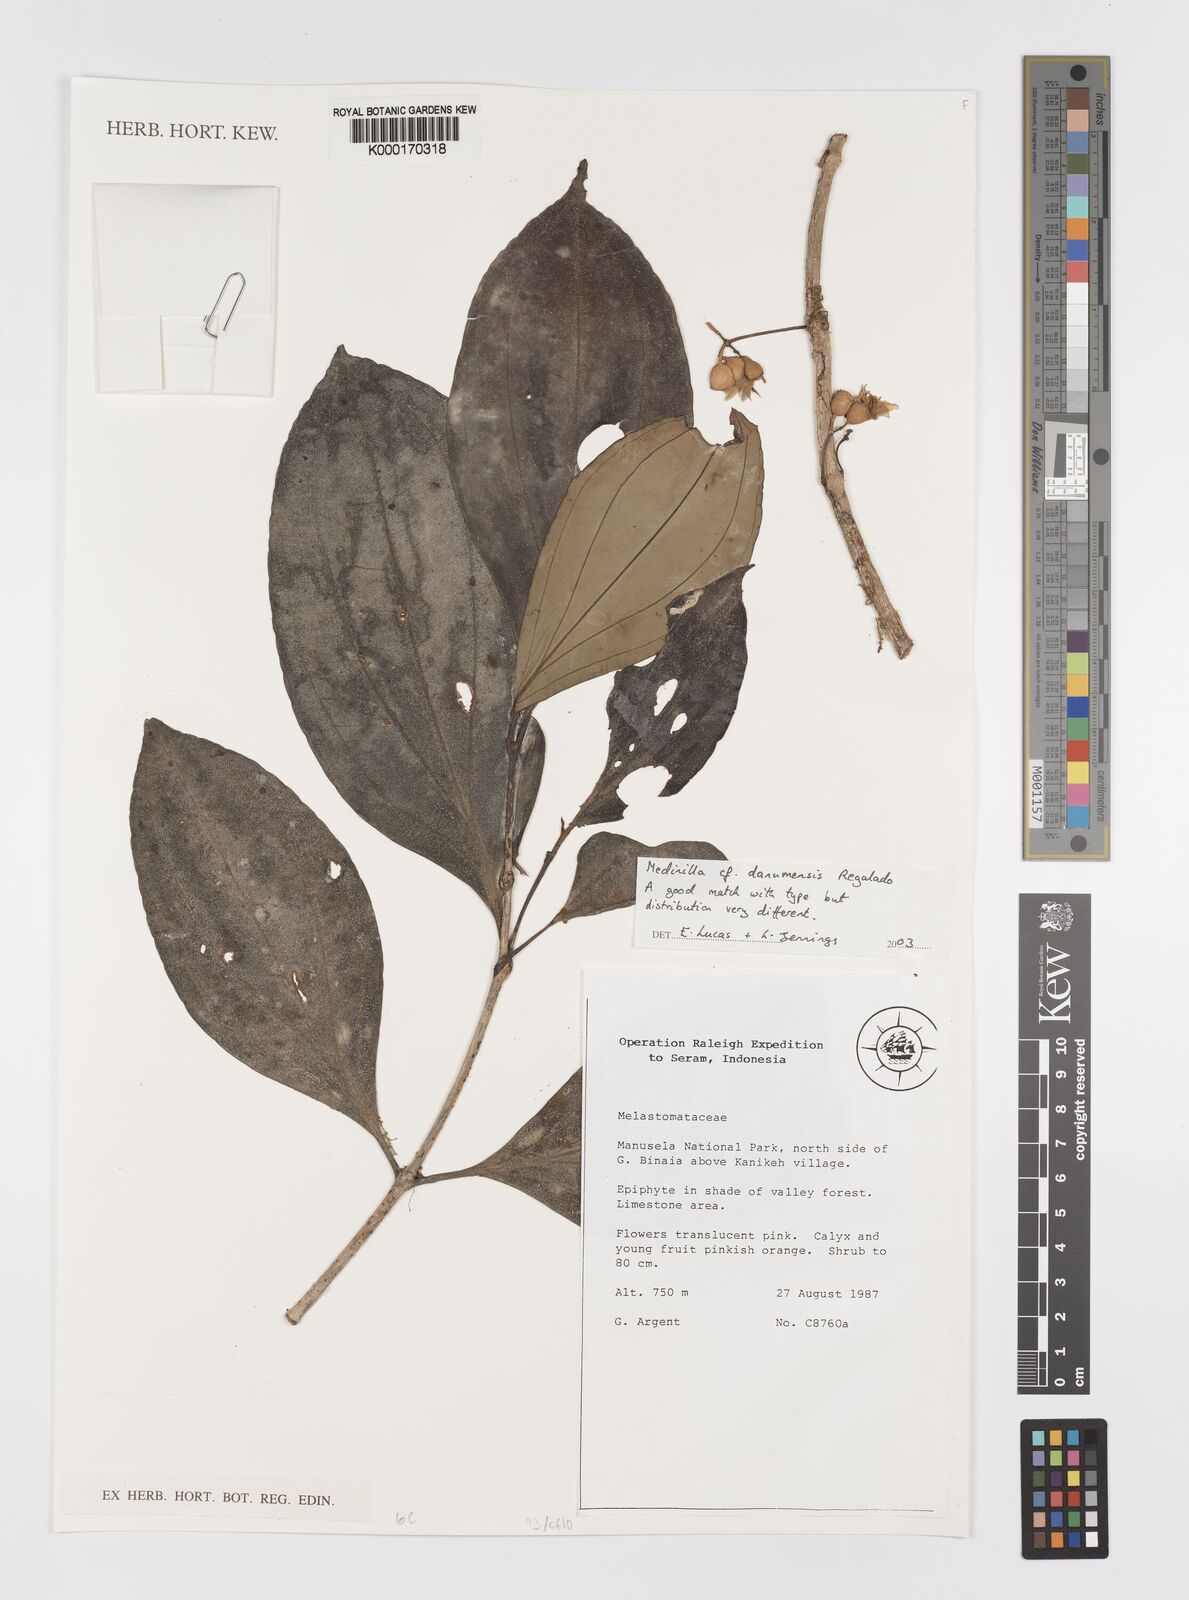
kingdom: Plantae
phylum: Tracheophyta
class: Magnoliopsida
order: Myrtales
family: Melastomataceae
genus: Medinilla
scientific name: Medinilla danumensis
